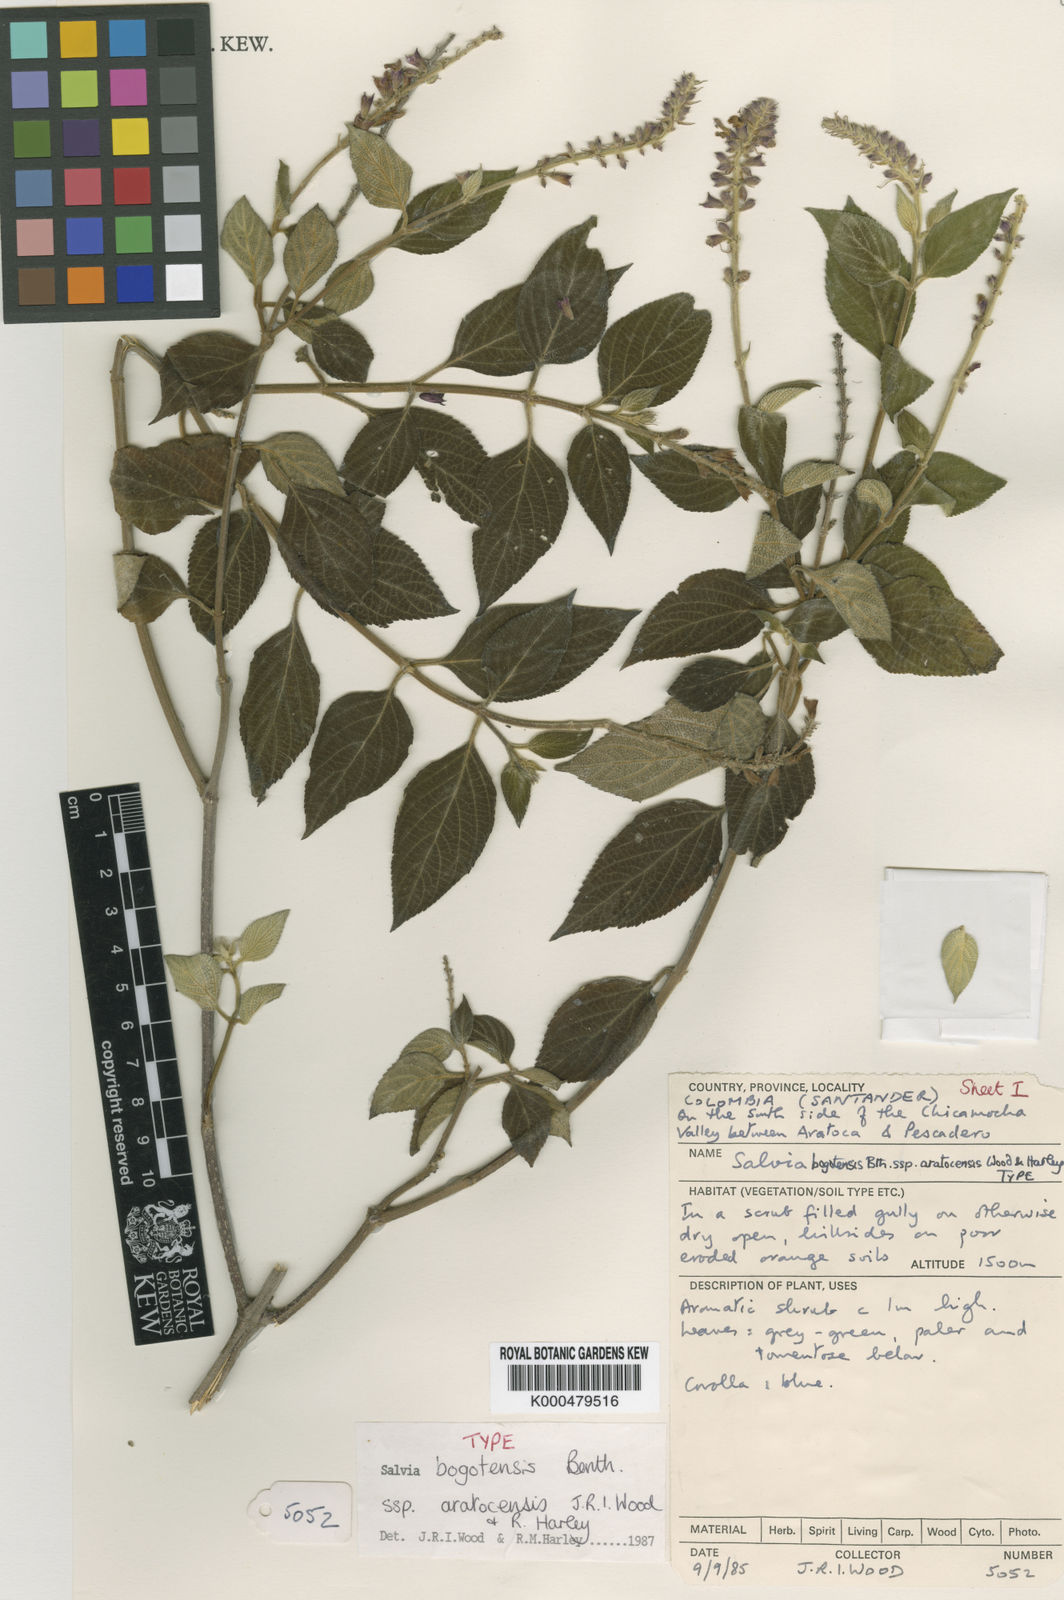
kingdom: Plantae
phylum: Tracheophyta
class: Magnoliopsida
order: Lamiales
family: Lamiaceae
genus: Salvia
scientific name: Salvia bogotensis
